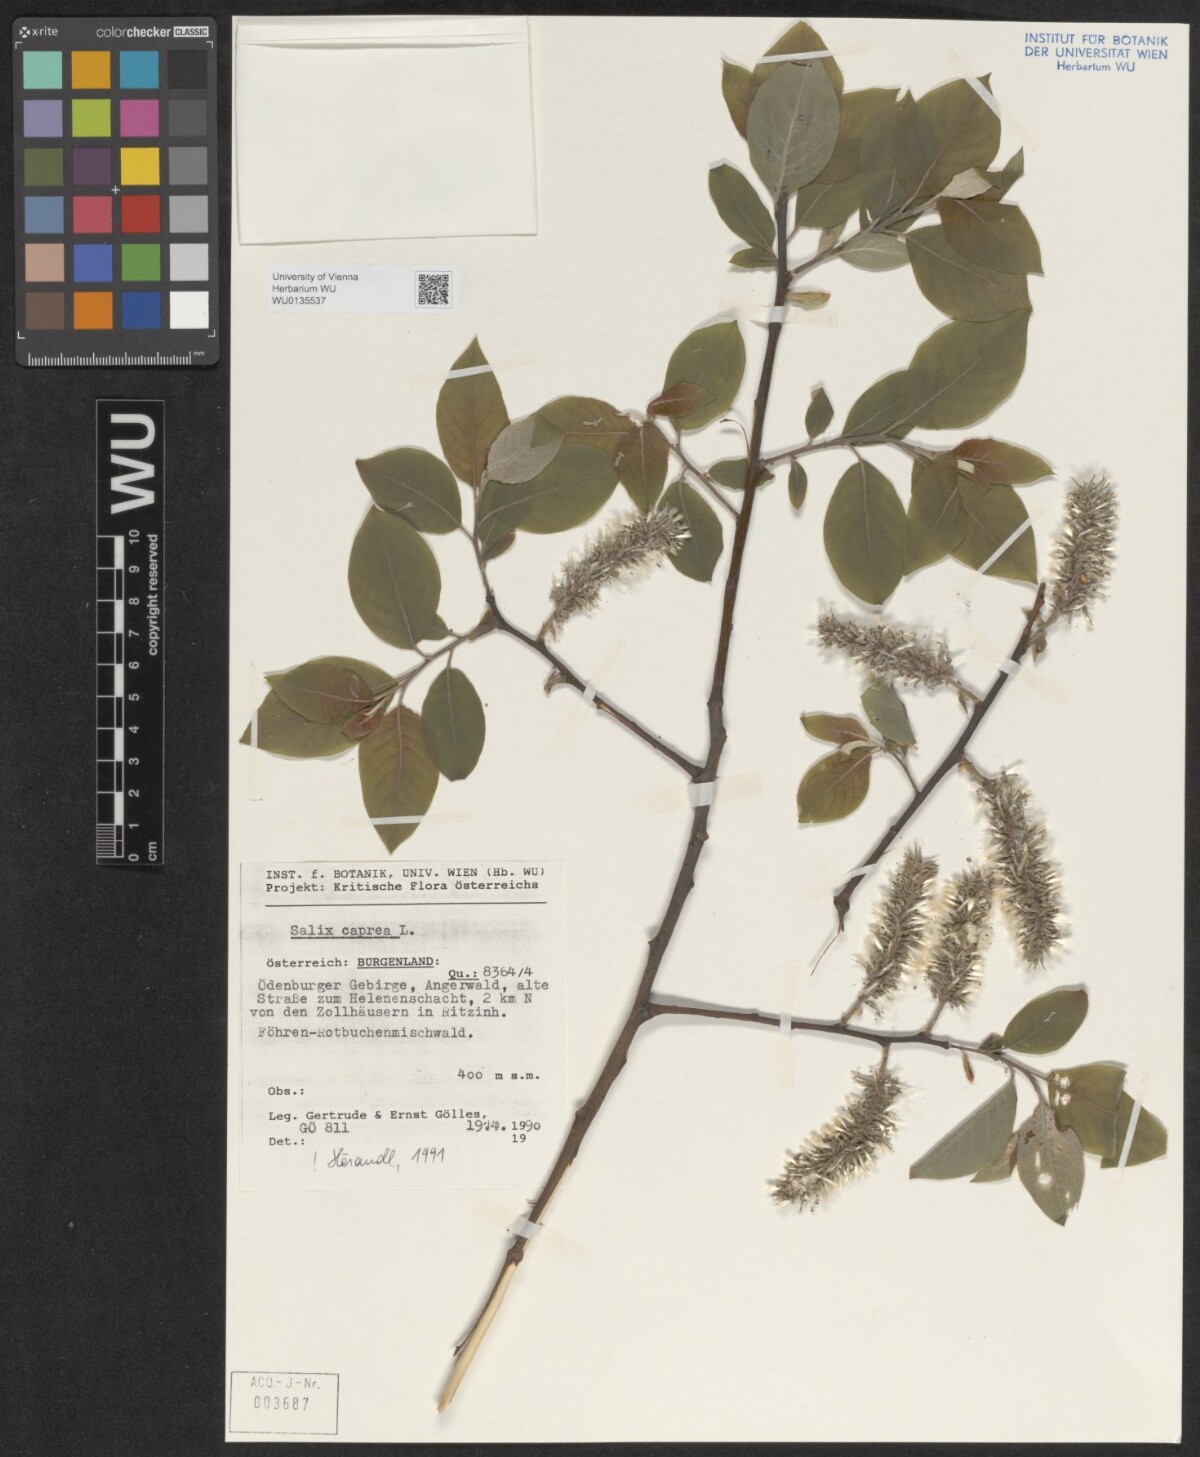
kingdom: Plantae
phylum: Tracheophyta
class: Magnoliopsida
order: Malpighiales
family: Salicaceae
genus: Salix
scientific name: Salix caprea
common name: Goat willow
